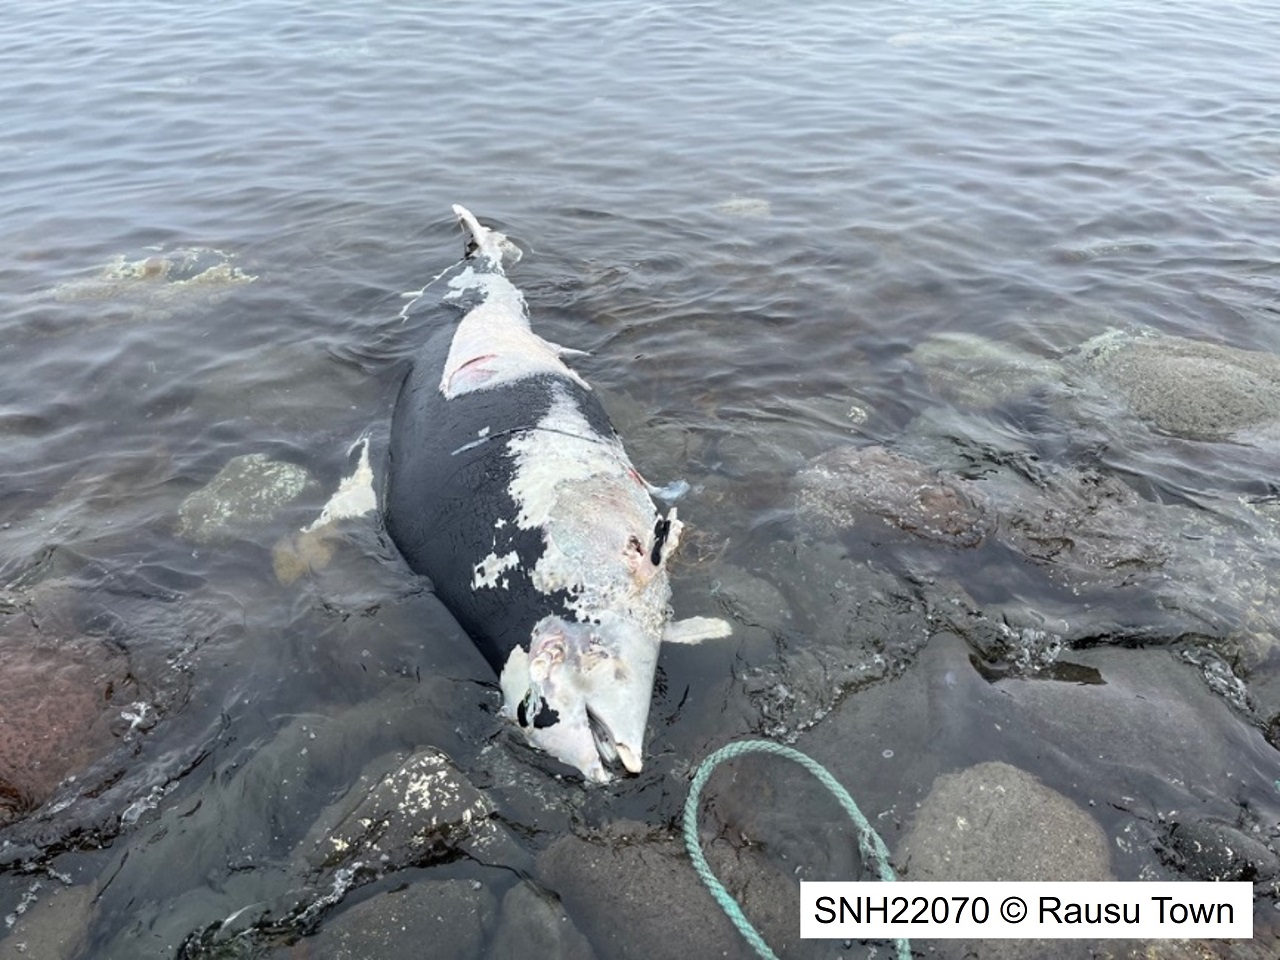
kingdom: Animalia
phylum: Chordata
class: Mammalia
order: Cetacea
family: Phocoenidae
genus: Phocoenoides
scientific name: Phocoenoides dalli
